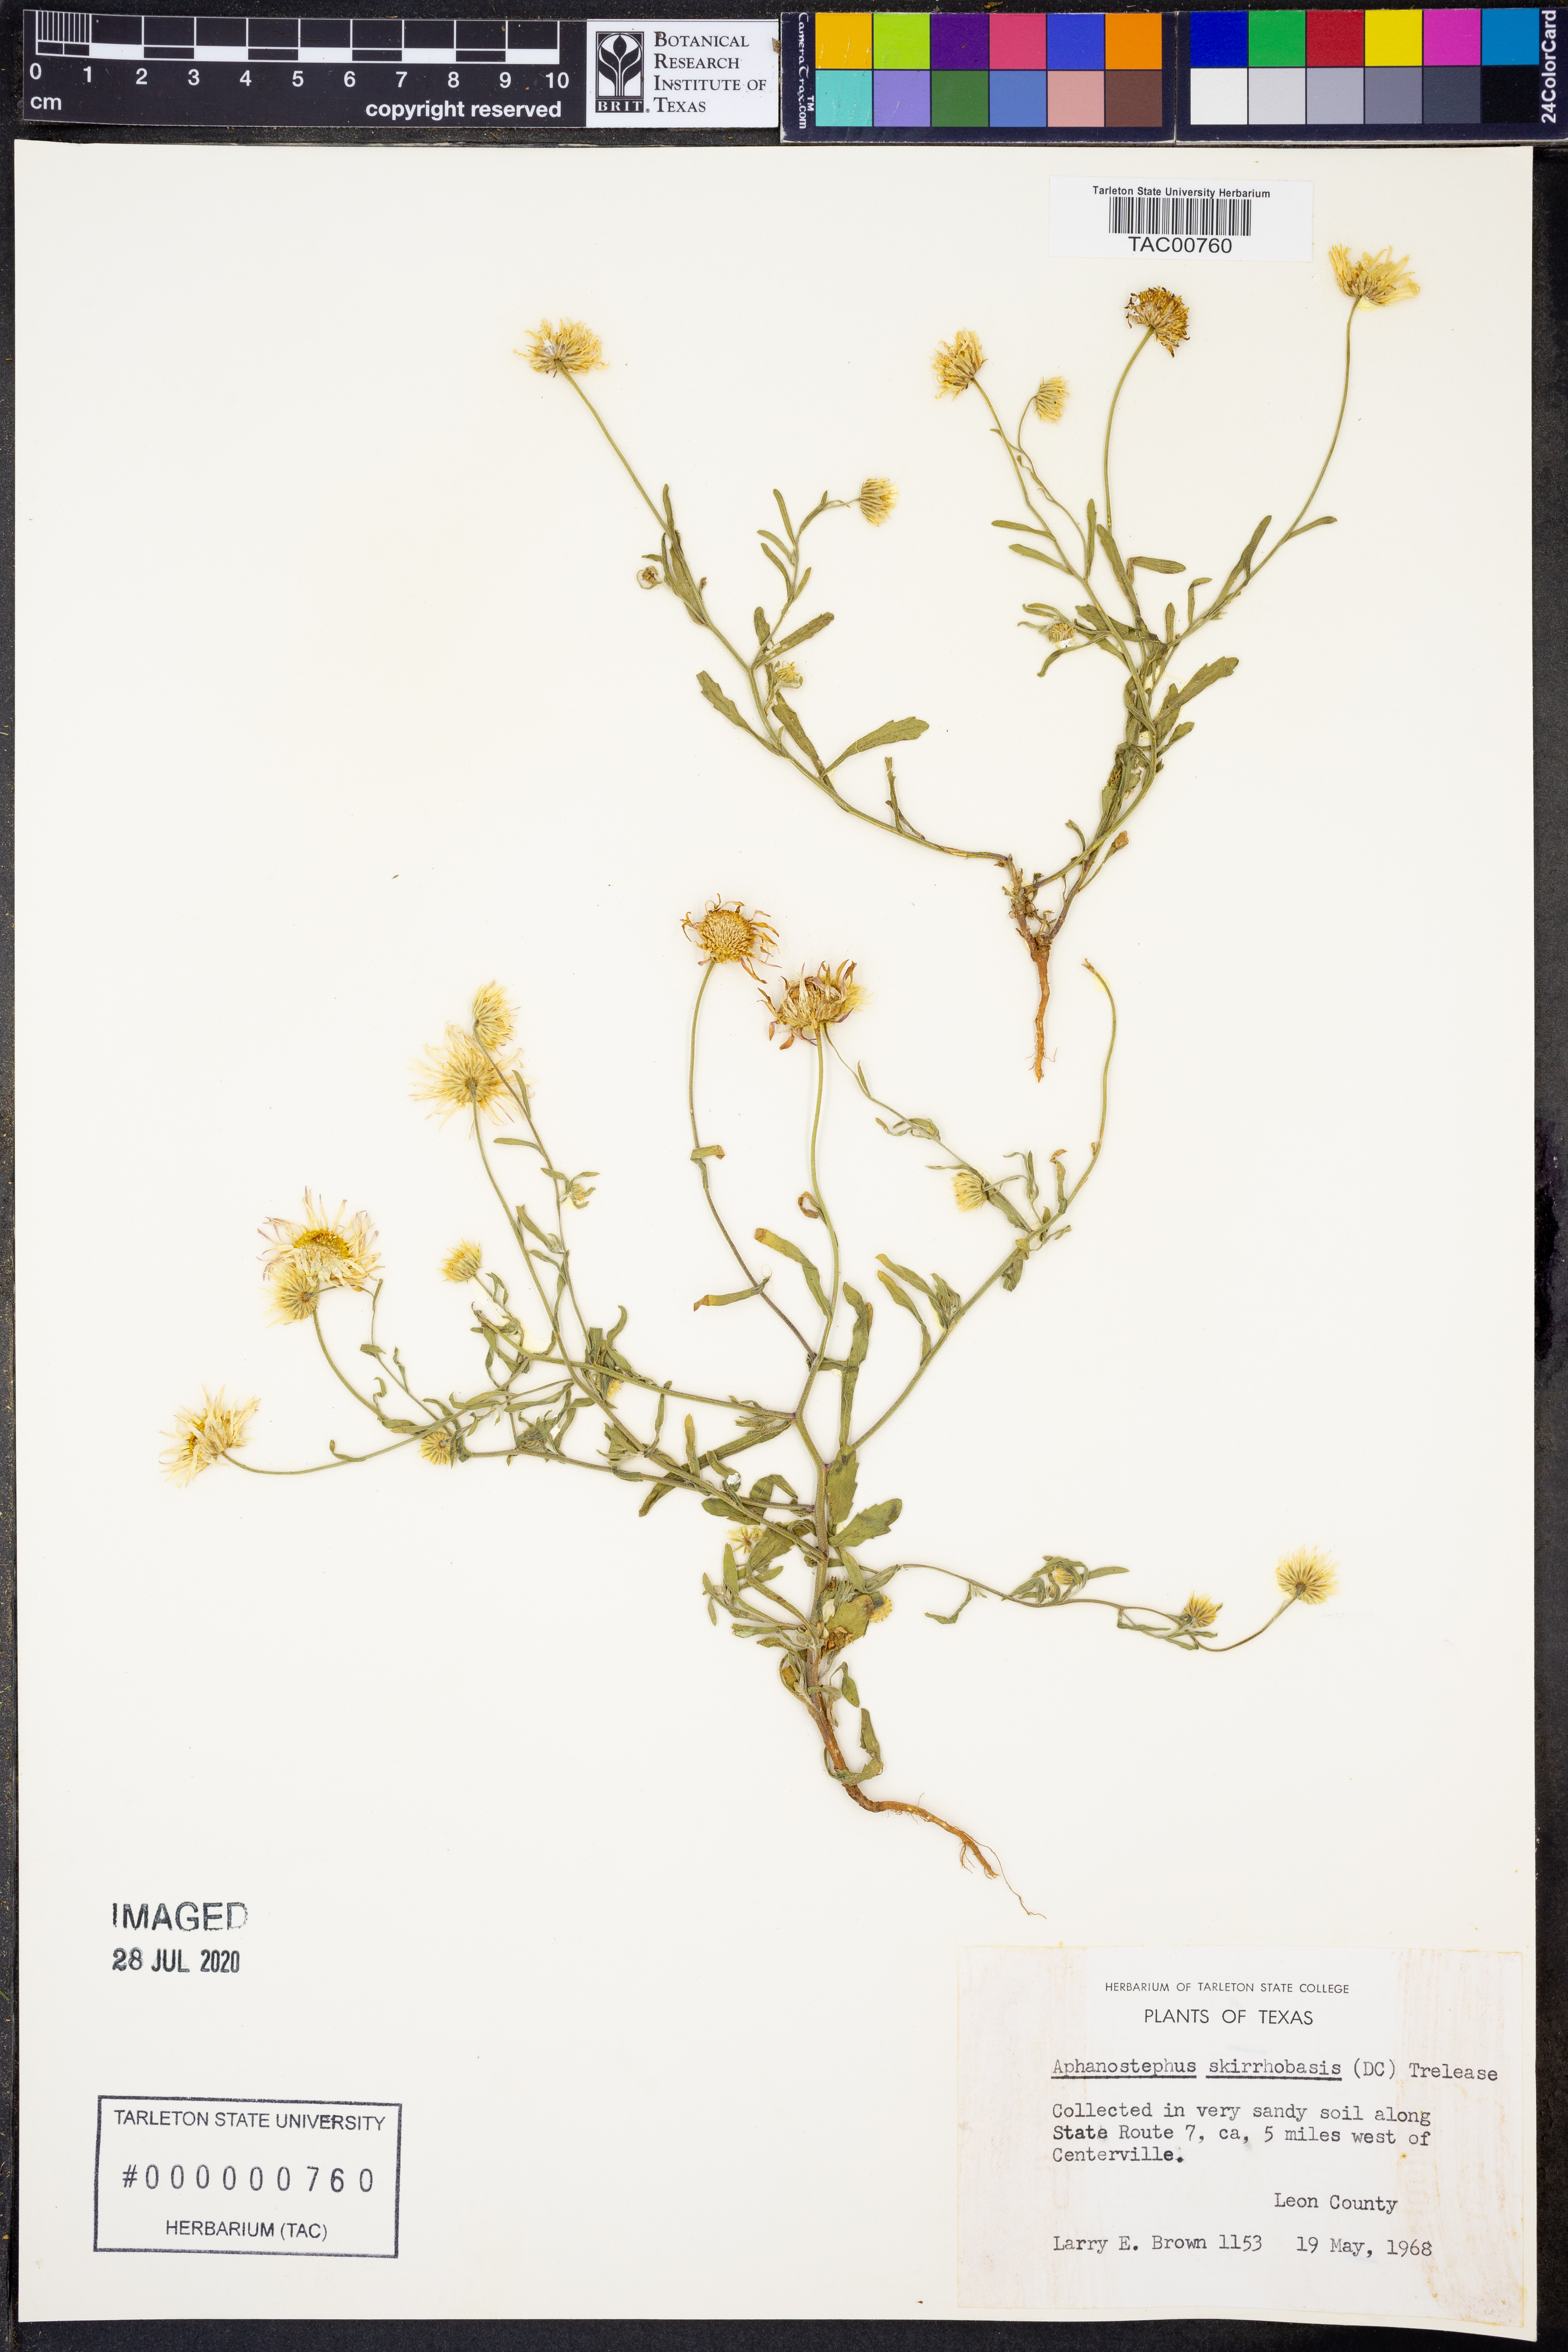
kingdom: Plantae
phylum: Tracheophyta
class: Magnoliopsida
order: Asterales
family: Asteraceae
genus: Aphanostephus
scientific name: Aphanostephus skirrhobasis
